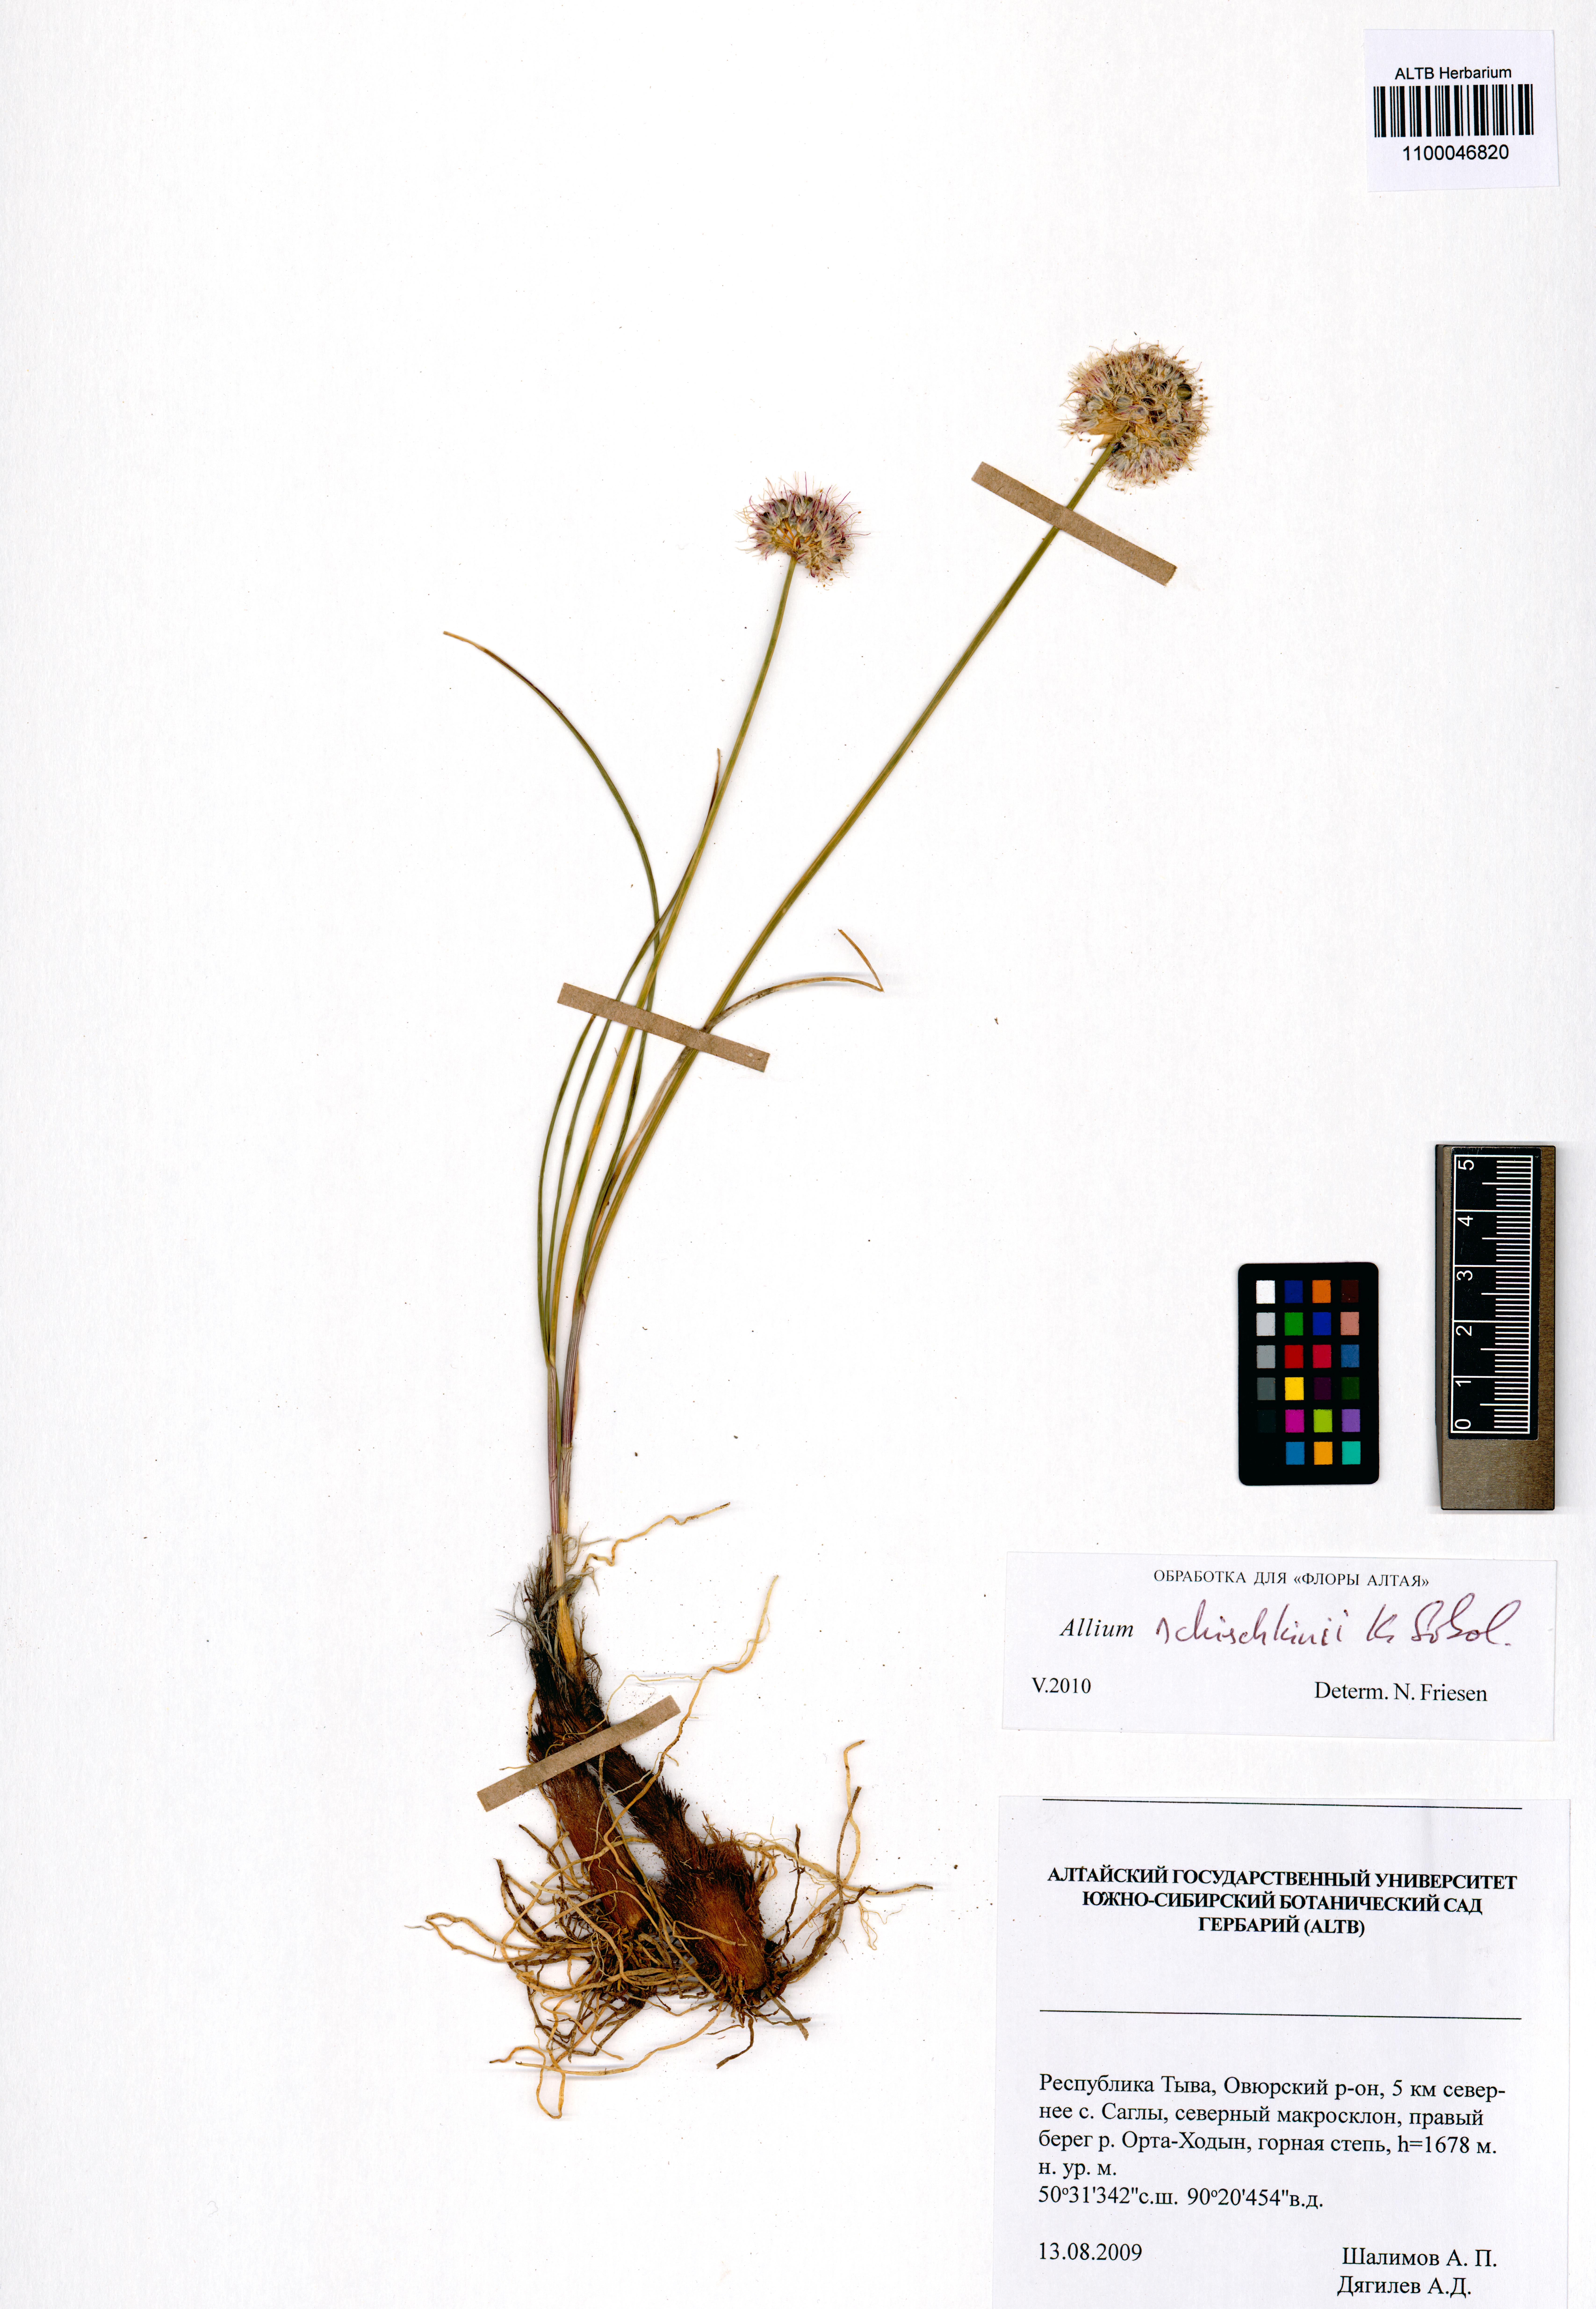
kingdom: Plantae
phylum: Tracheophyta
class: Liliopsida
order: Asparagales
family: Amaryllidaceae
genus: Allium
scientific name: Allium schischkinii
